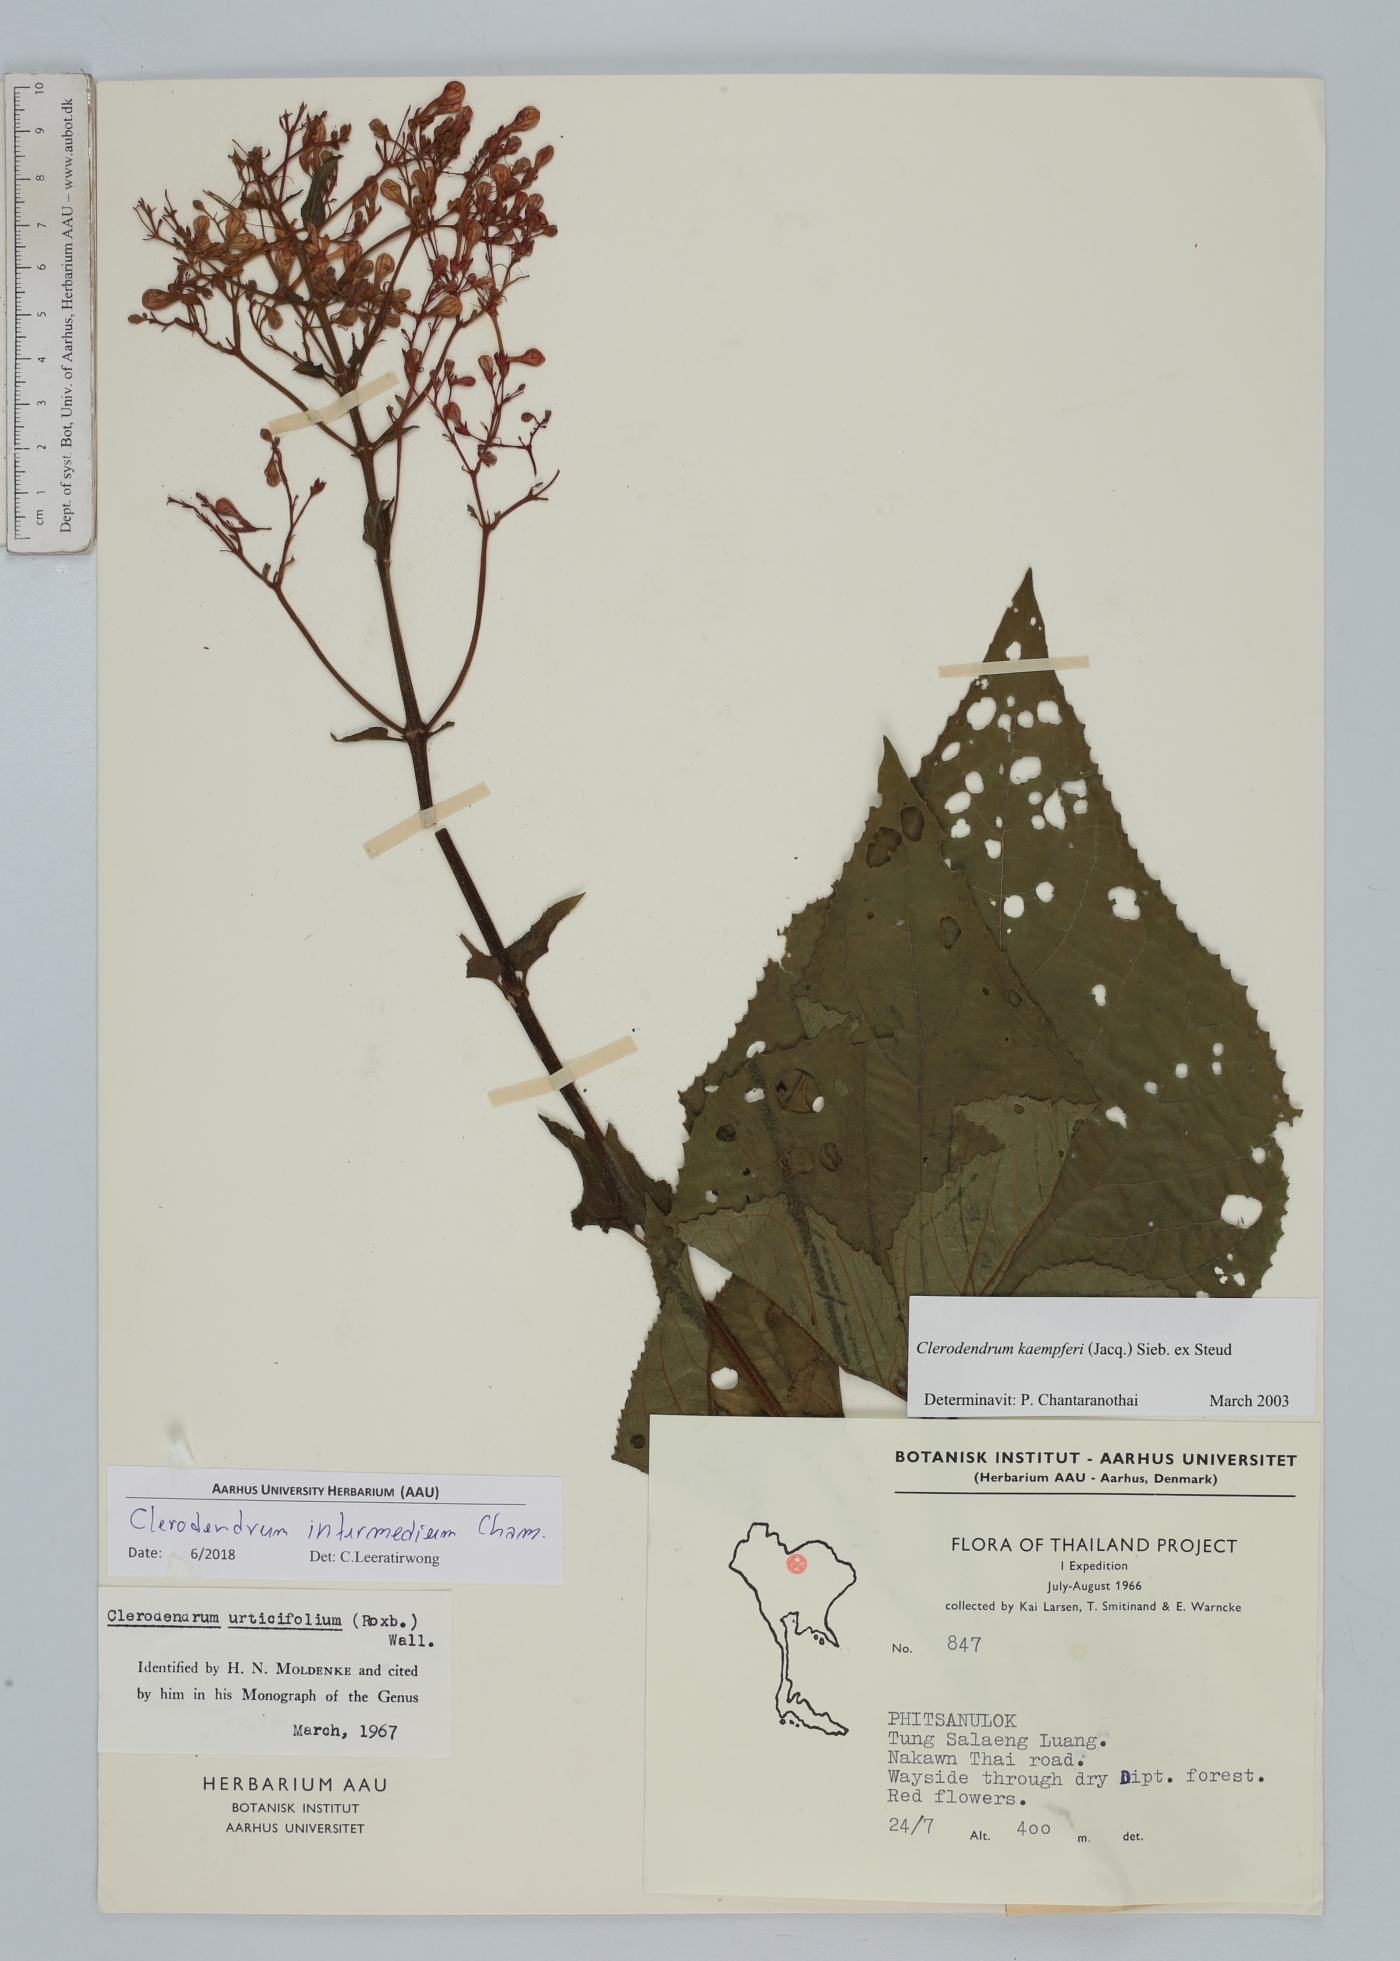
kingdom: Plantae
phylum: Tracheophyta
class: Magnoliopsida
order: Lamiales
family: Lamiaceae
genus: Clerodendrum
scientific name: Clerodendrum intermedium
